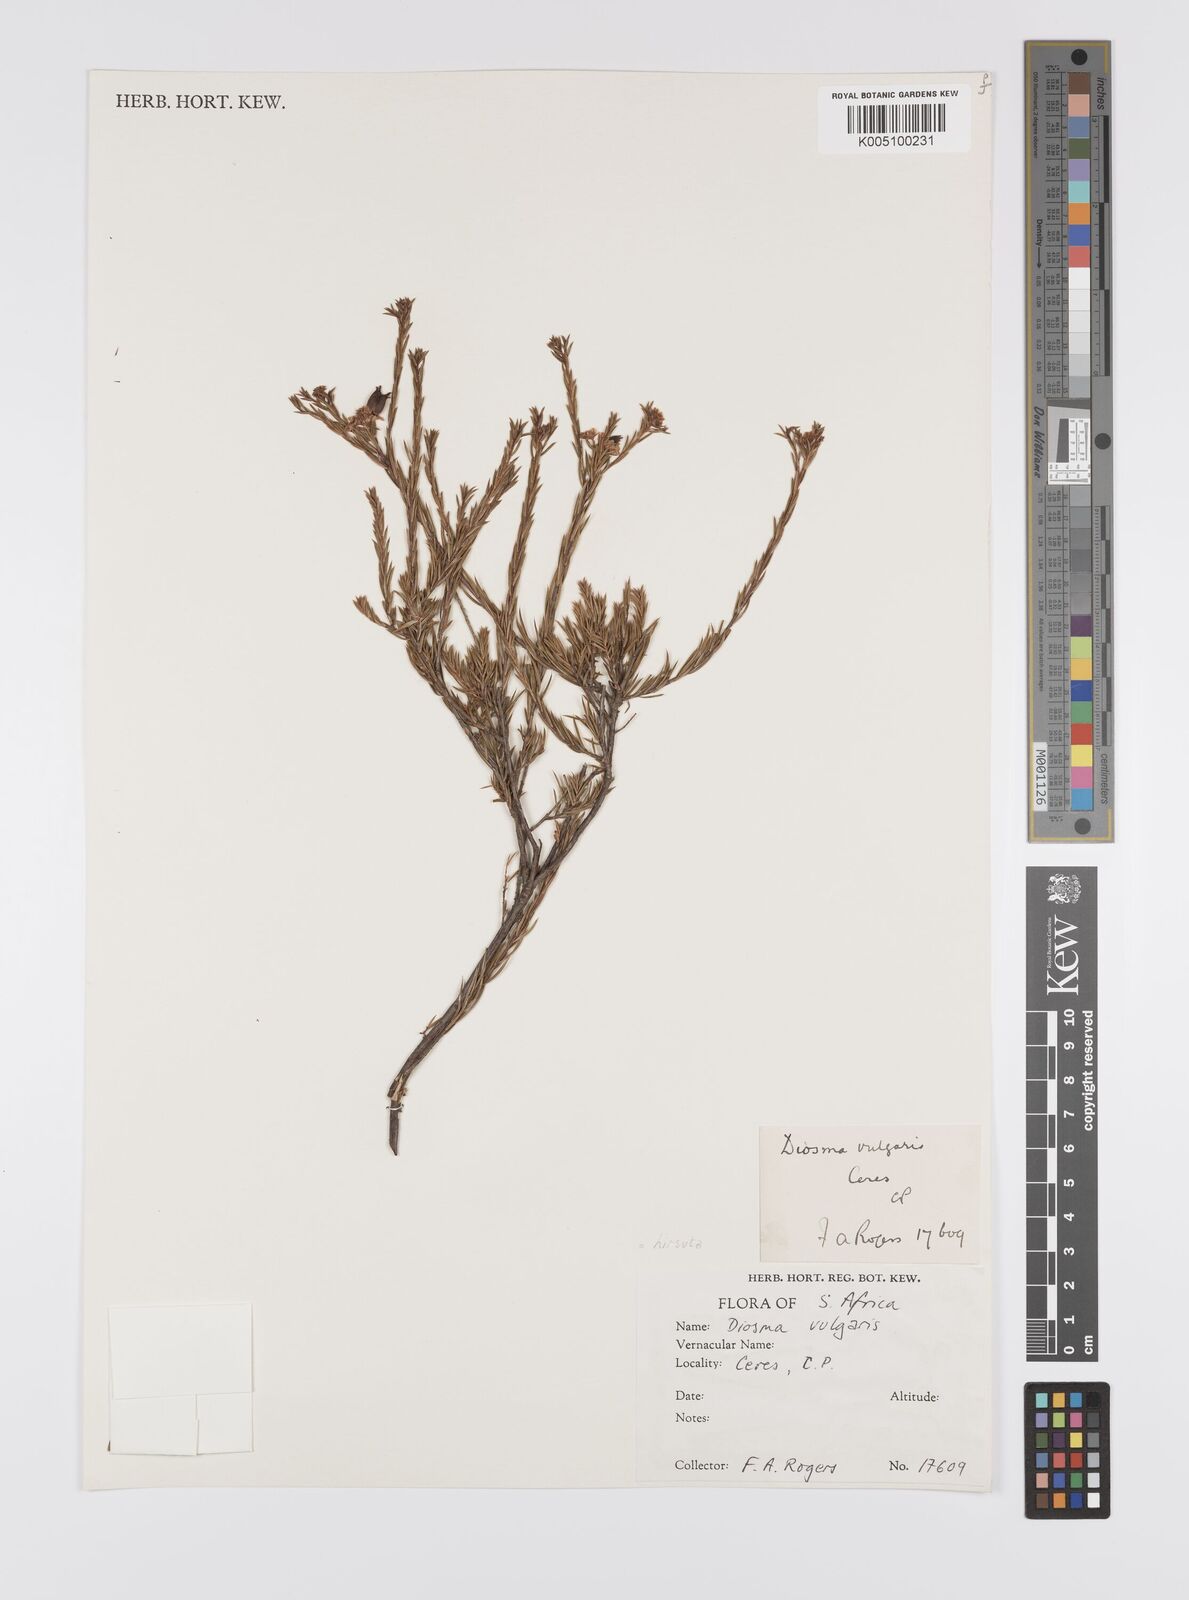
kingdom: Plantae
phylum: Tracheophyta
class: Magnoliopsida
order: Sapindales
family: Rutaceae
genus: Diosma
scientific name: Diosma hirsuta
